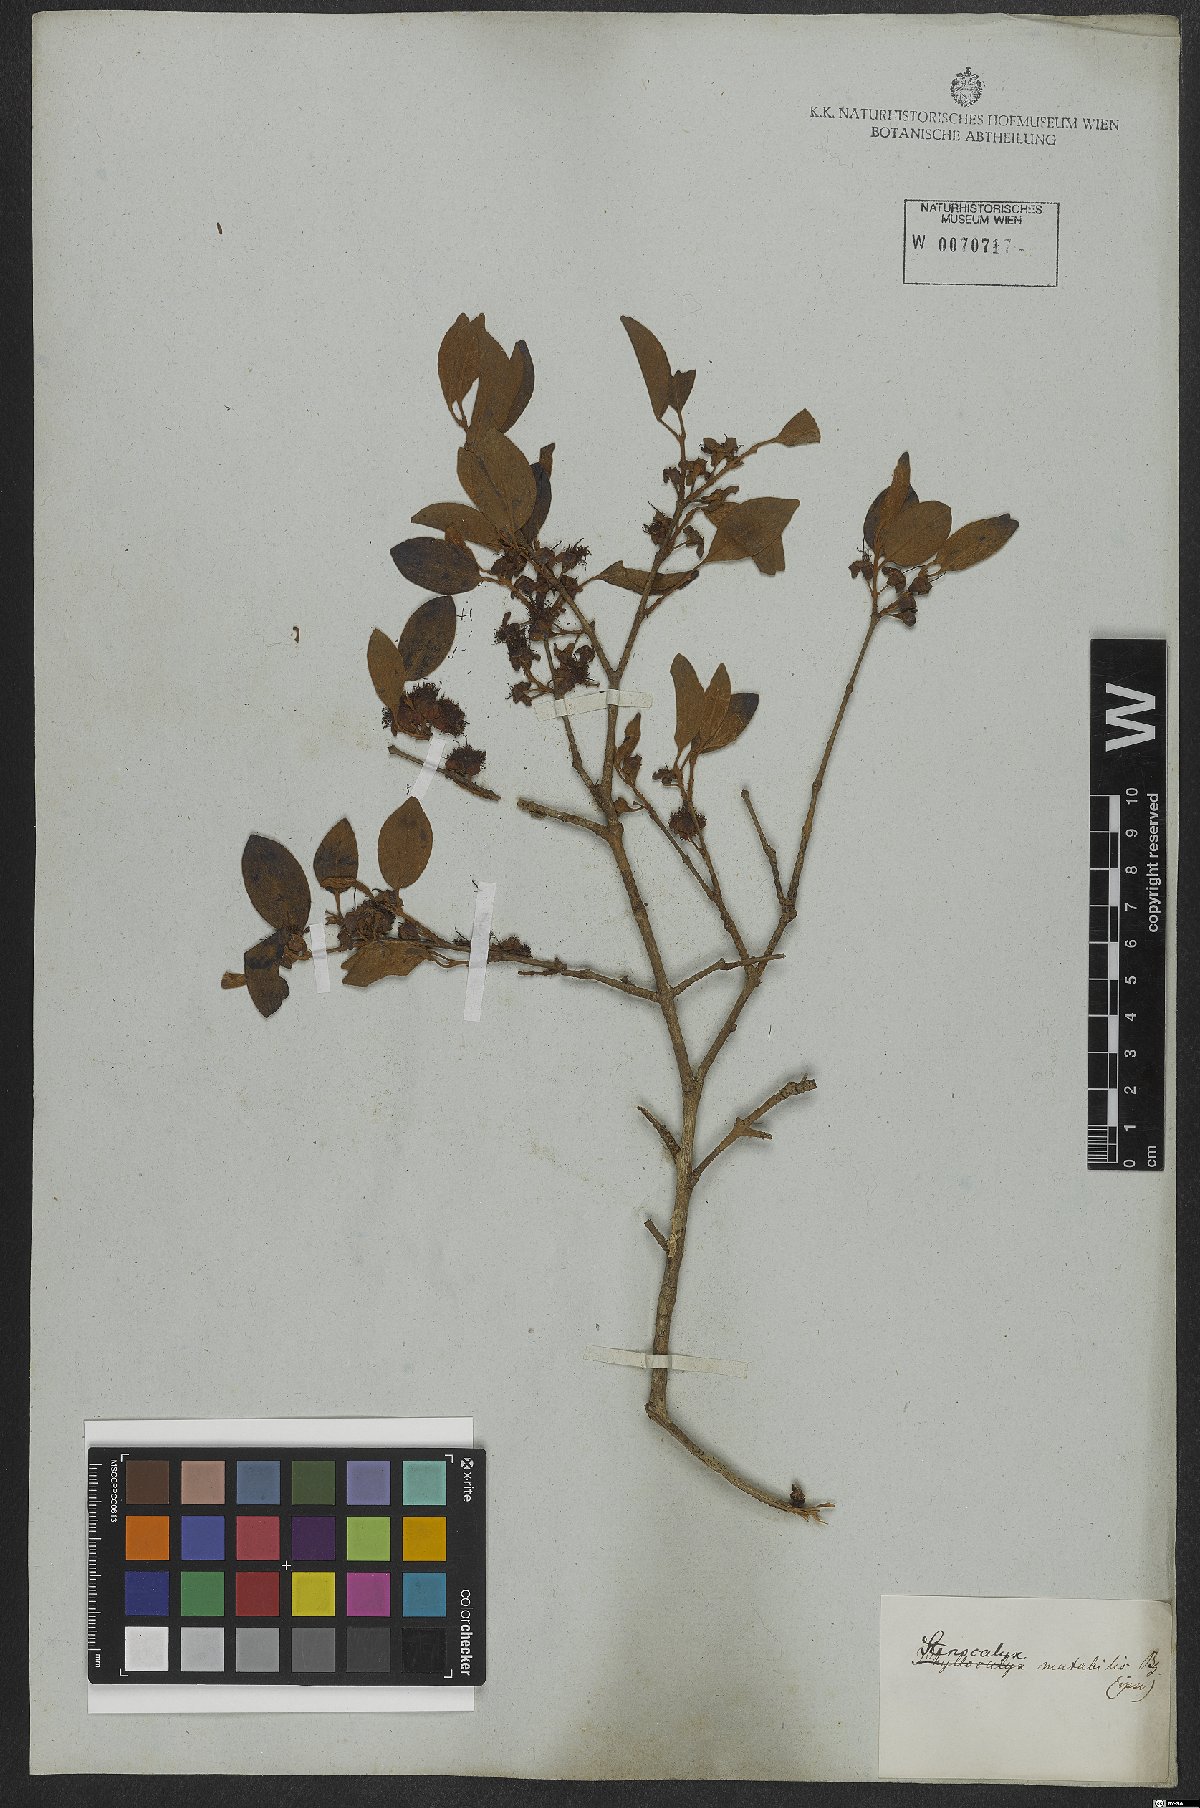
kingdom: Plantae
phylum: Tracheophyta
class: Magnoliopsida
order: Myrtales
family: Myrtaceae
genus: Pimenta
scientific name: Pimenta pseudocaryophyllus
